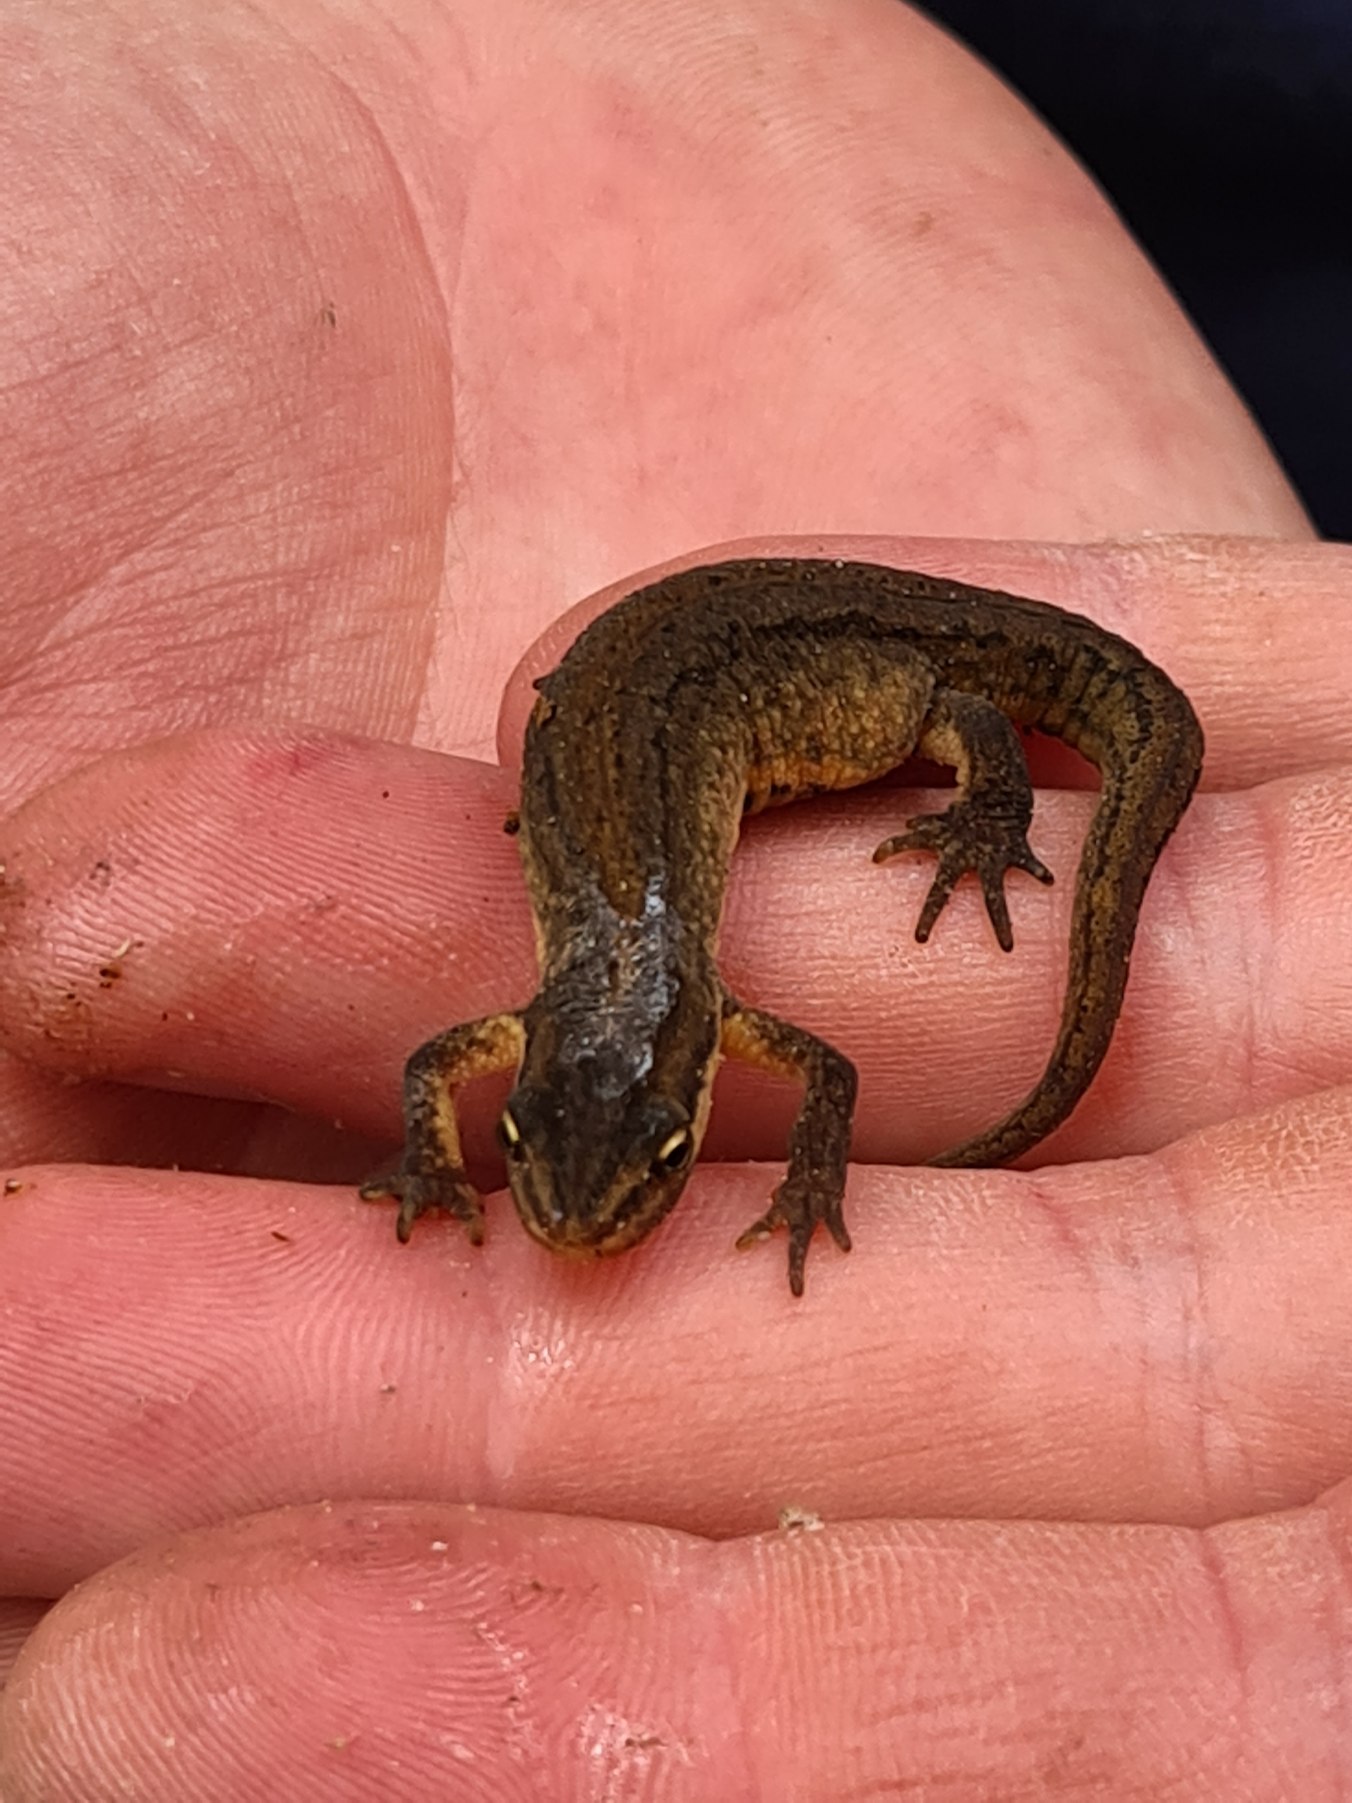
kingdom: Animalia
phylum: Chordata
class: Amphibia
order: Caudata
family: Salamandridae
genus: Lissotriton
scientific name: Lissotriton vulgaris
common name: Lille vandsalamander
